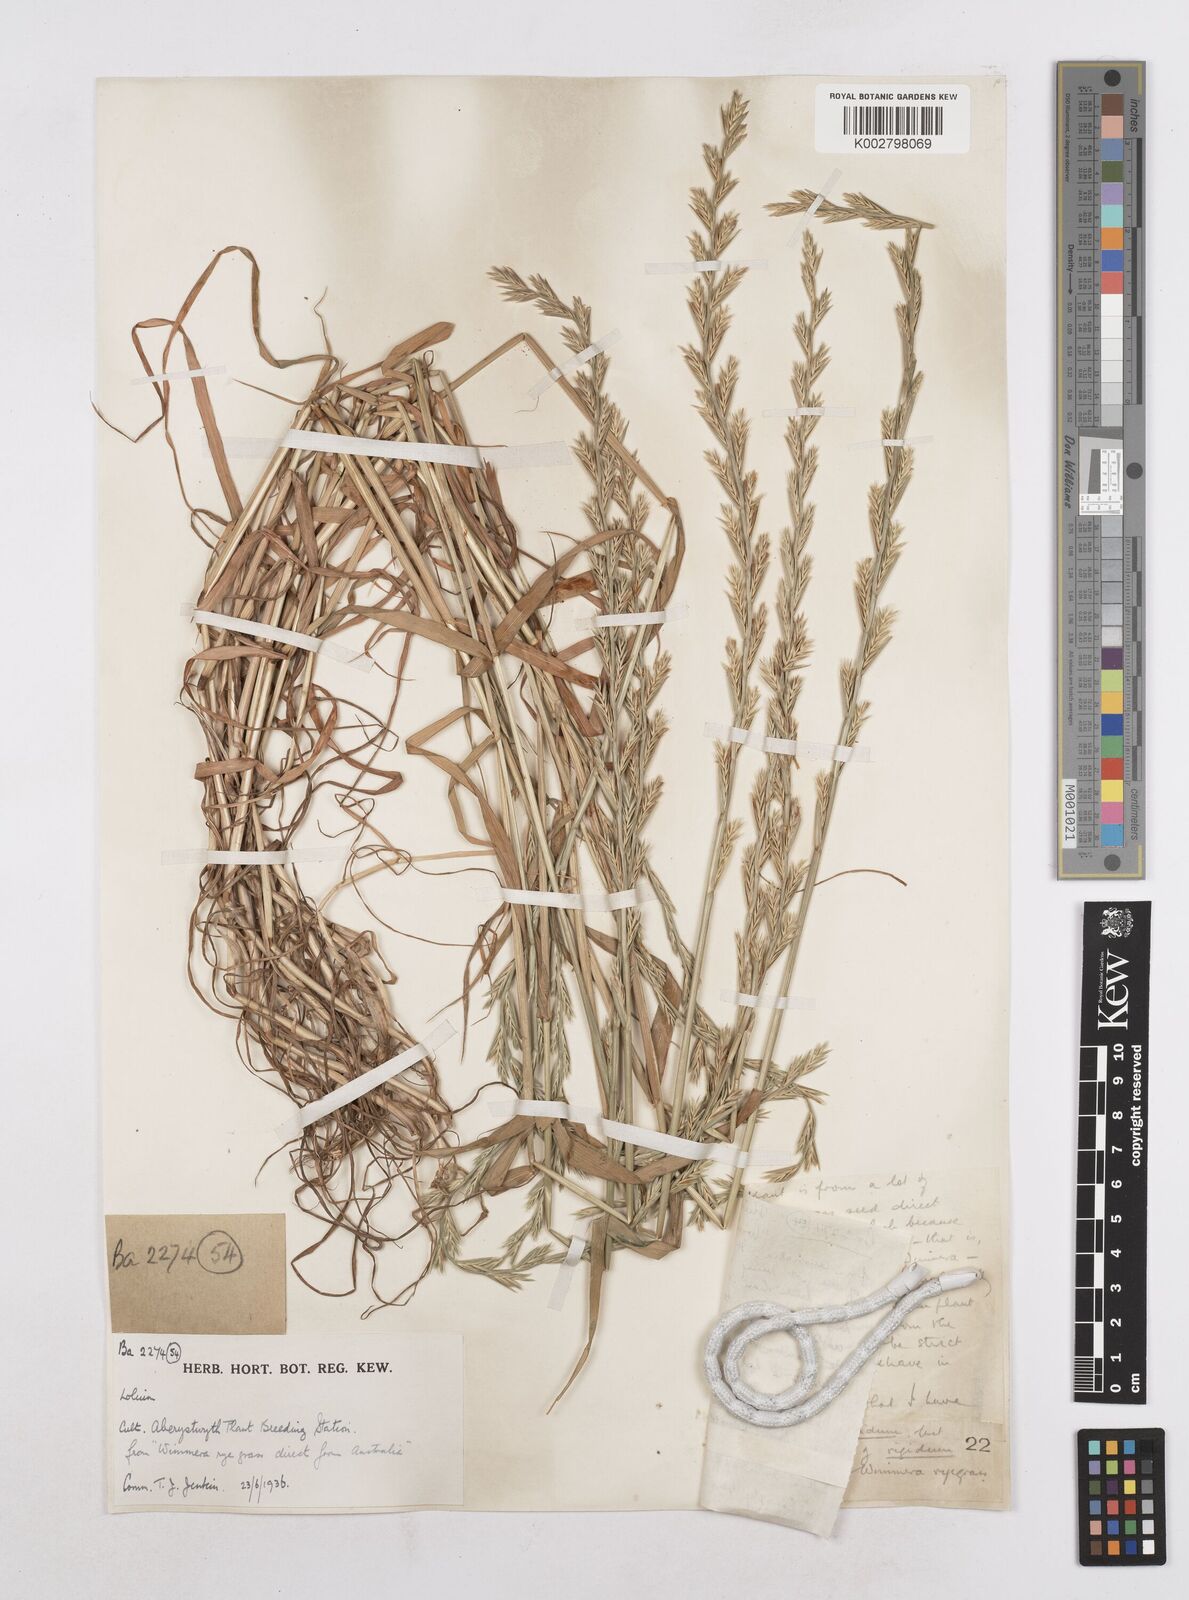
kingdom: Plantae
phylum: Tracheophyta
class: Liliopsida
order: Poales
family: Poaceae
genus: Lolium
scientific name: Lolium rigidum
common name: Wimmera ryegrass
